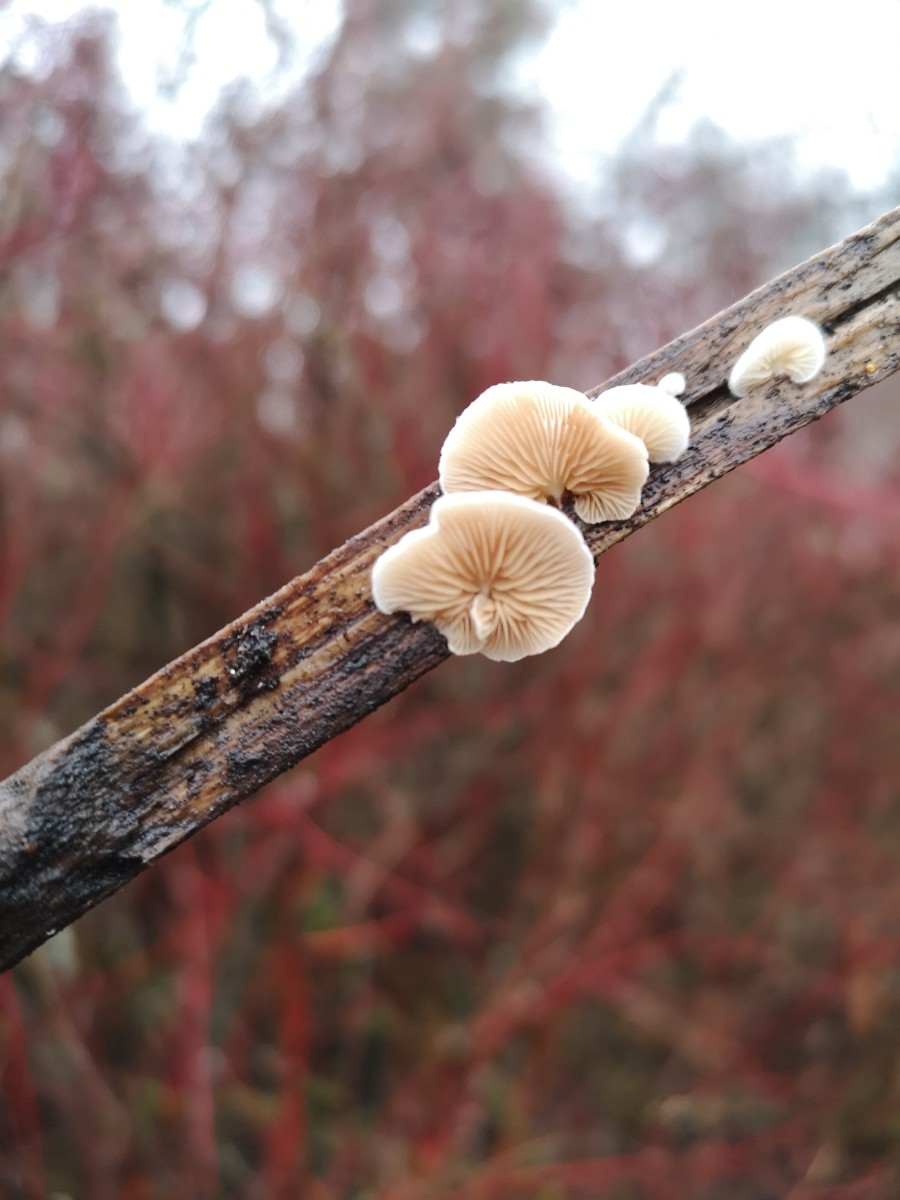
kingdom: Fungi
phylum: Basidiomycota
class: Agaricomycetes
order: Agaricales
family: Crepidotaceae
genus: Crepidotus
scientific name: Crepidotus
